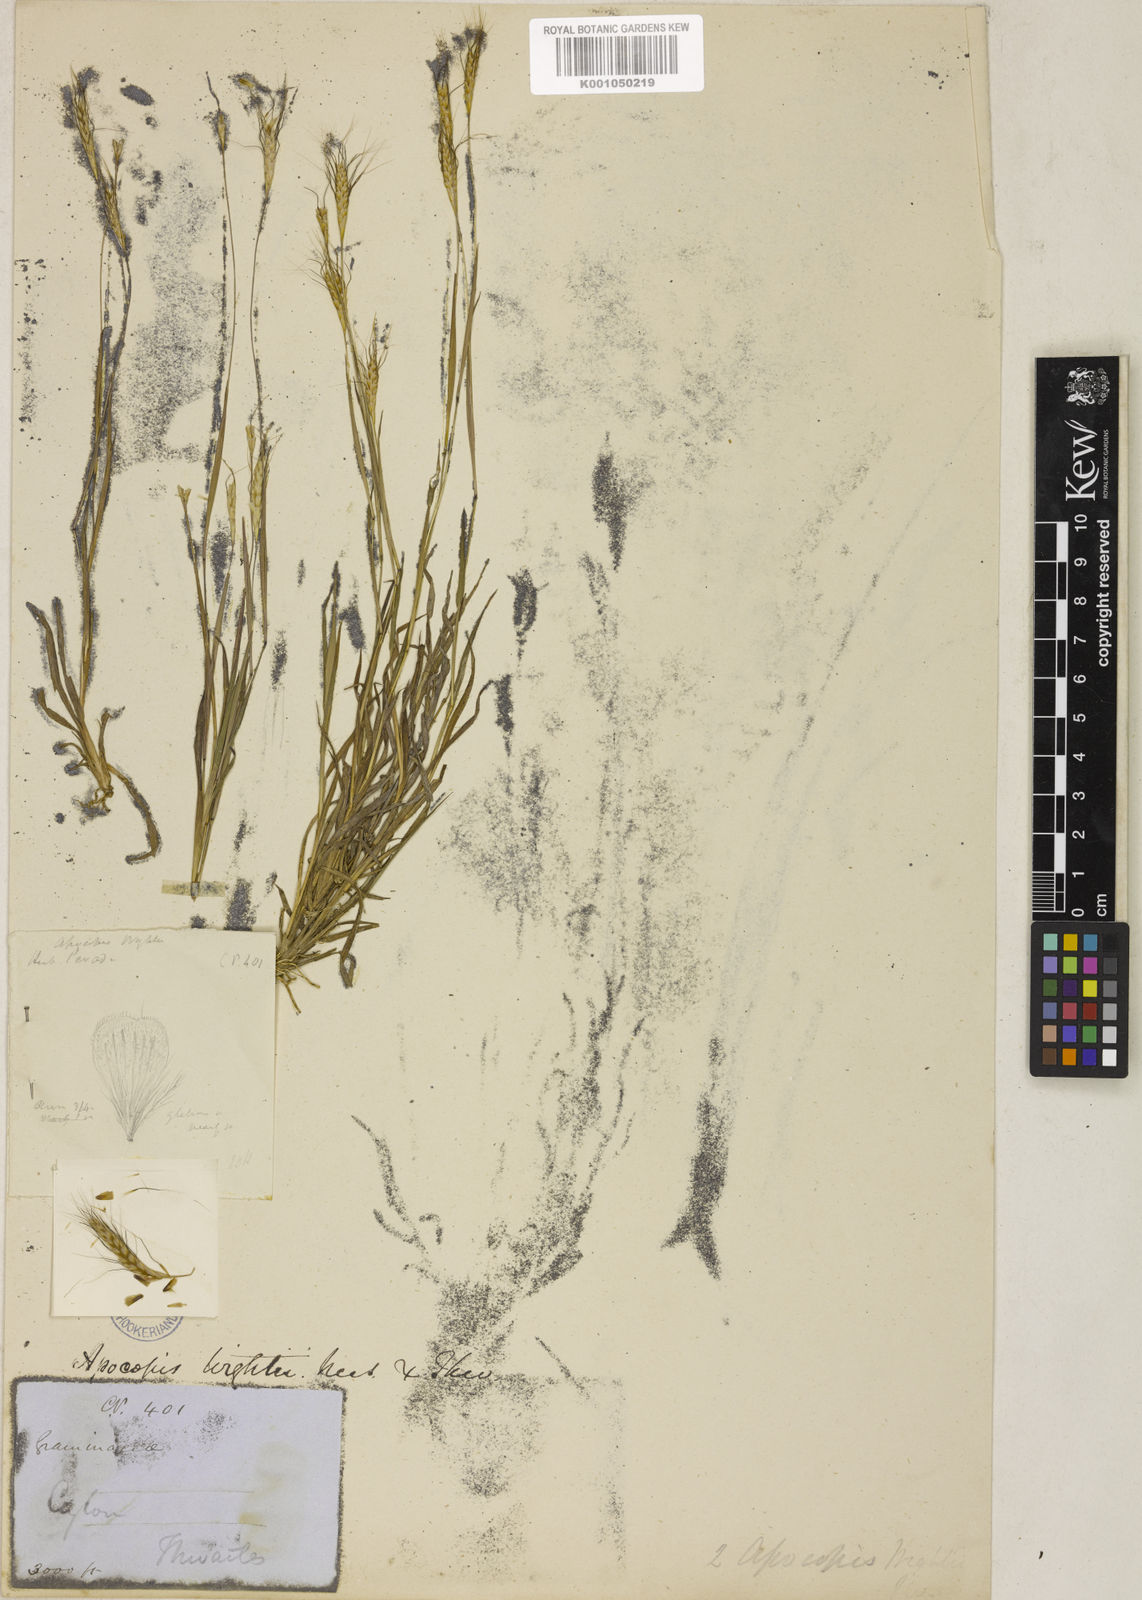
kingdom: Plantae
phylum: Tracheophyta
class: Liliopsida
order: Poales
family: Poaceae
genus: Apocopis
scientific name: Apocopis mangalorensis
